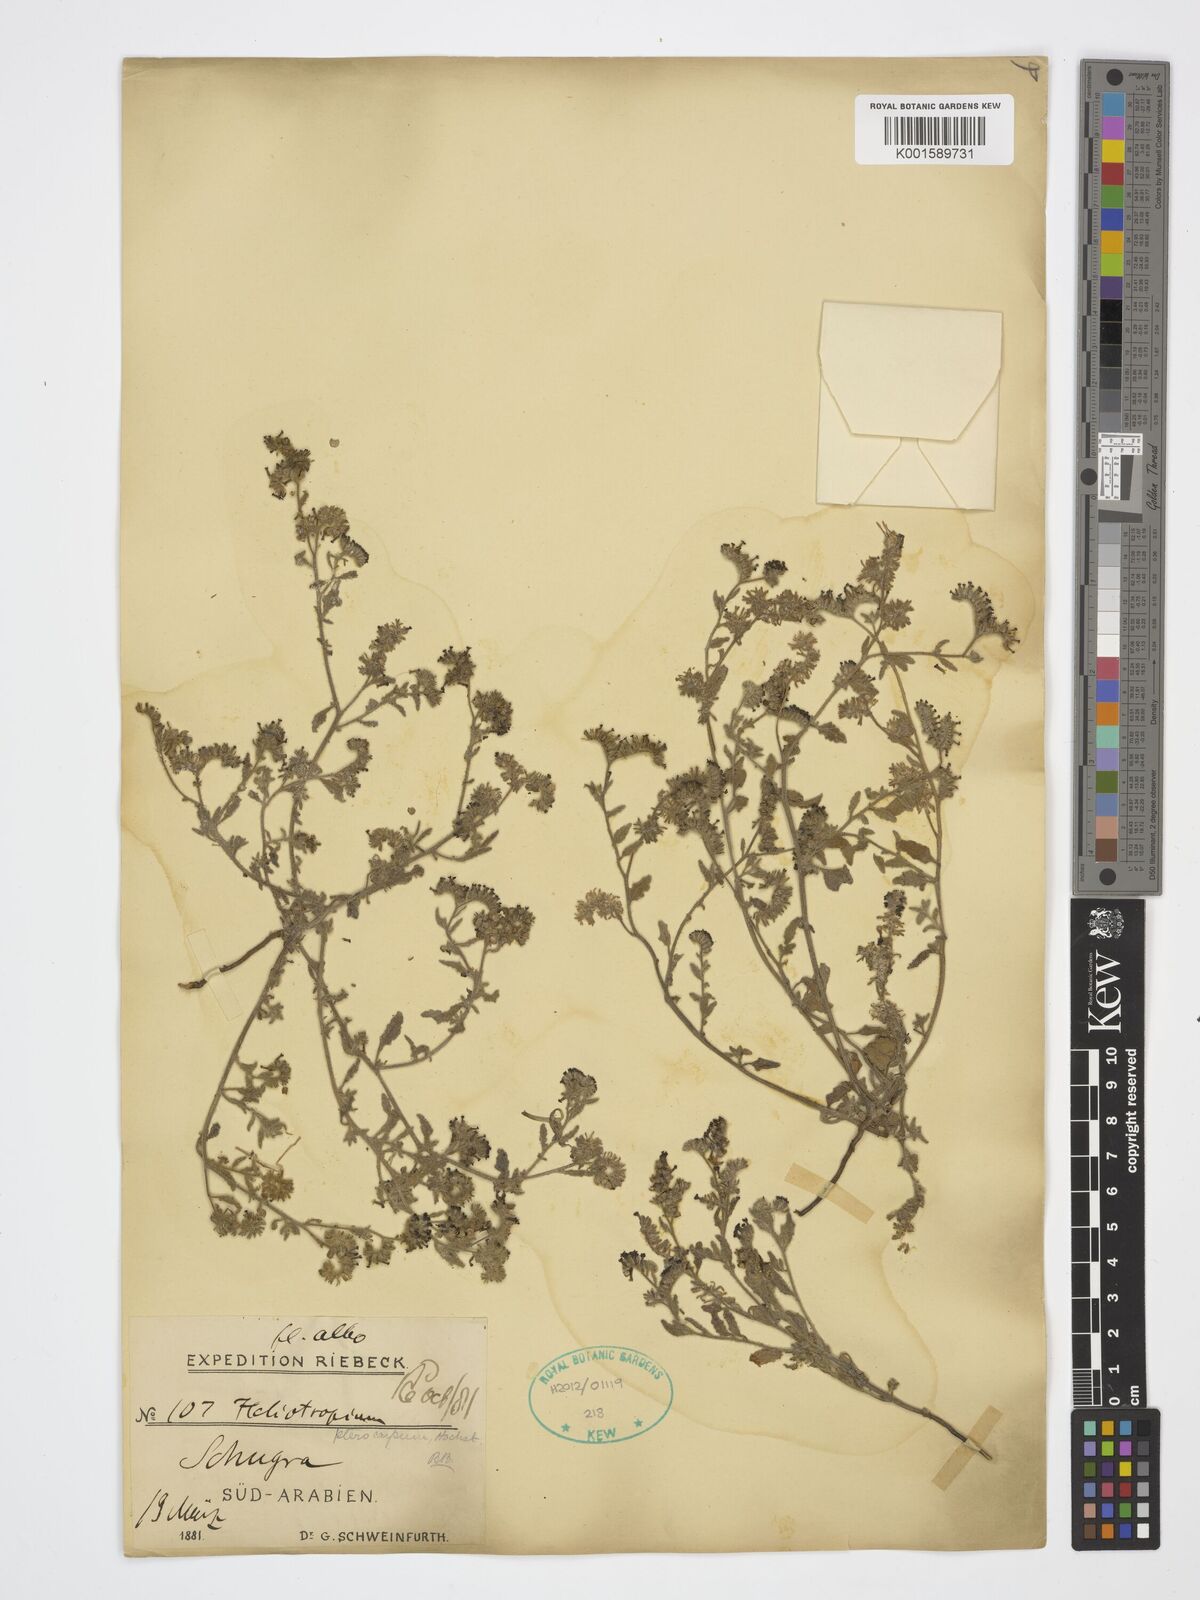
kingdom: Plantae
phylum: Tracheophyta
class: Magnoliopsida
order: Boraginales
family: Heliotropiaceae
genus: Heliotropium
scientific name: Heliotropium pterocarpum
